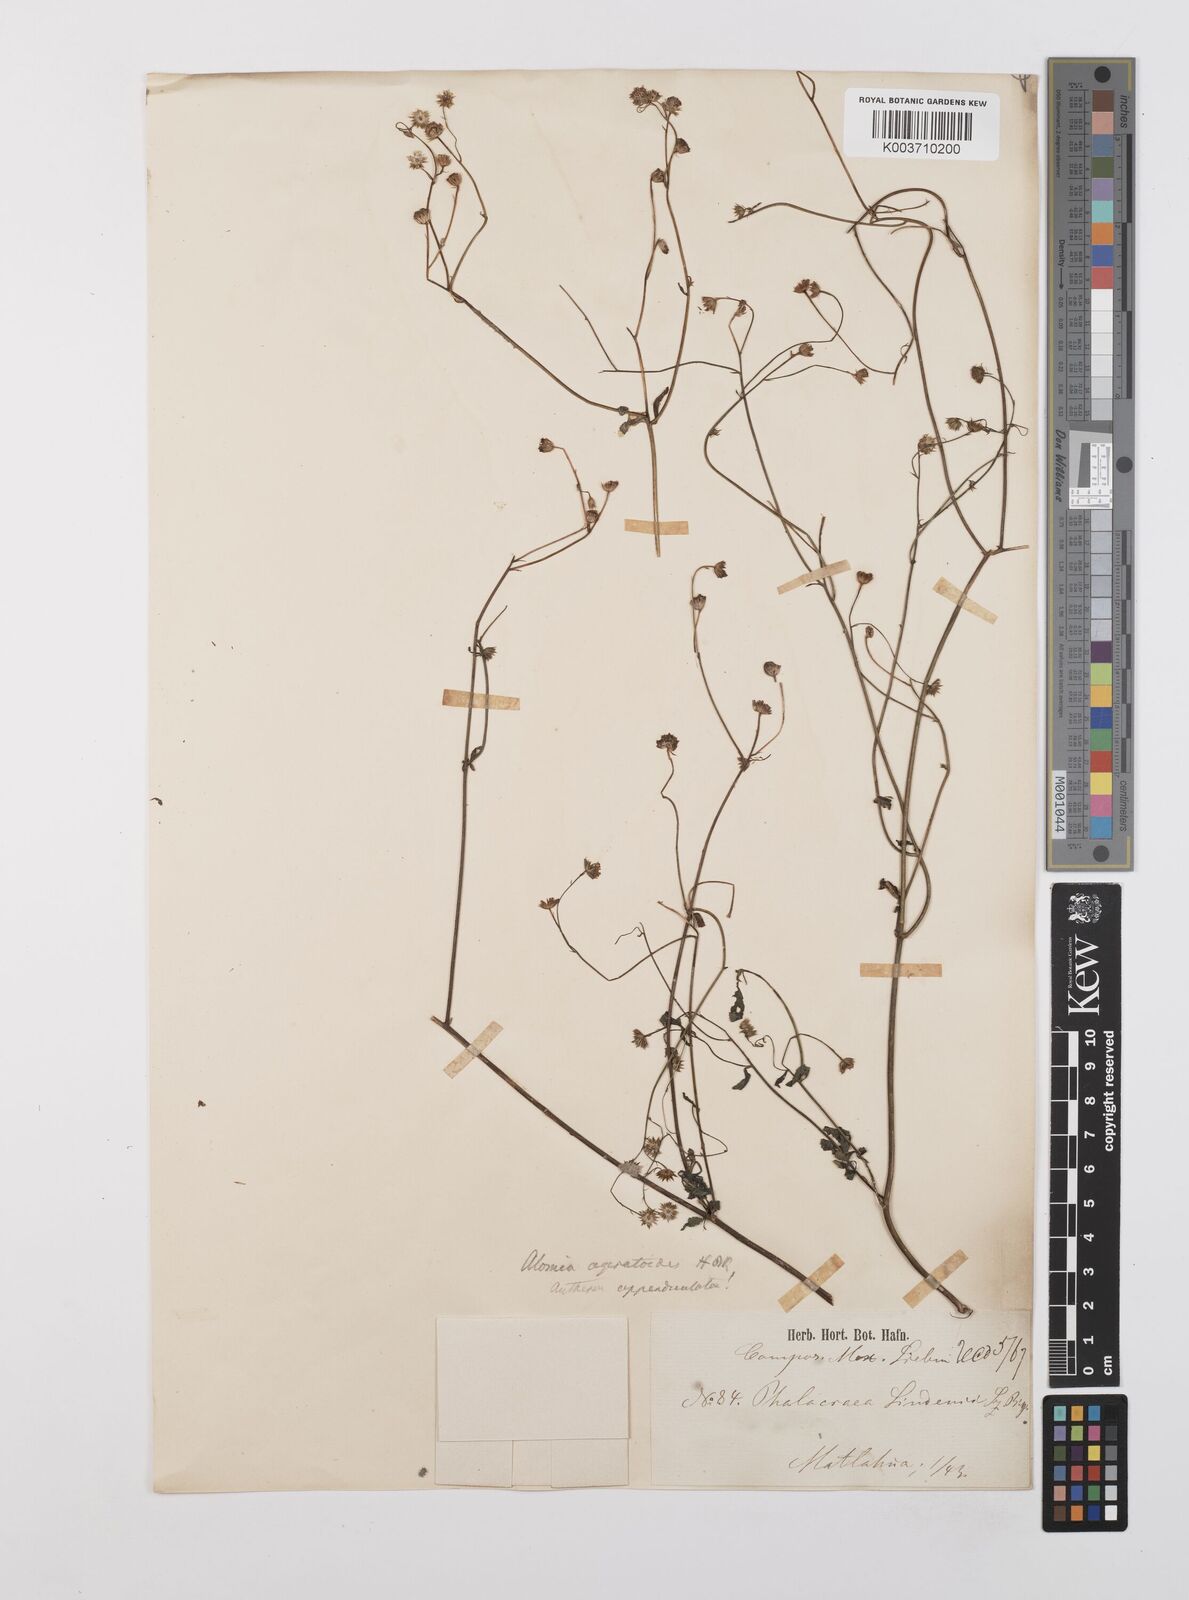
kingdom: Plantae
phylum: Tracheophyta
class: Magnoliopsida
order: Asterales
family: Asteraceae
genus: Alomia
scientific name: Alomia ageratoides
